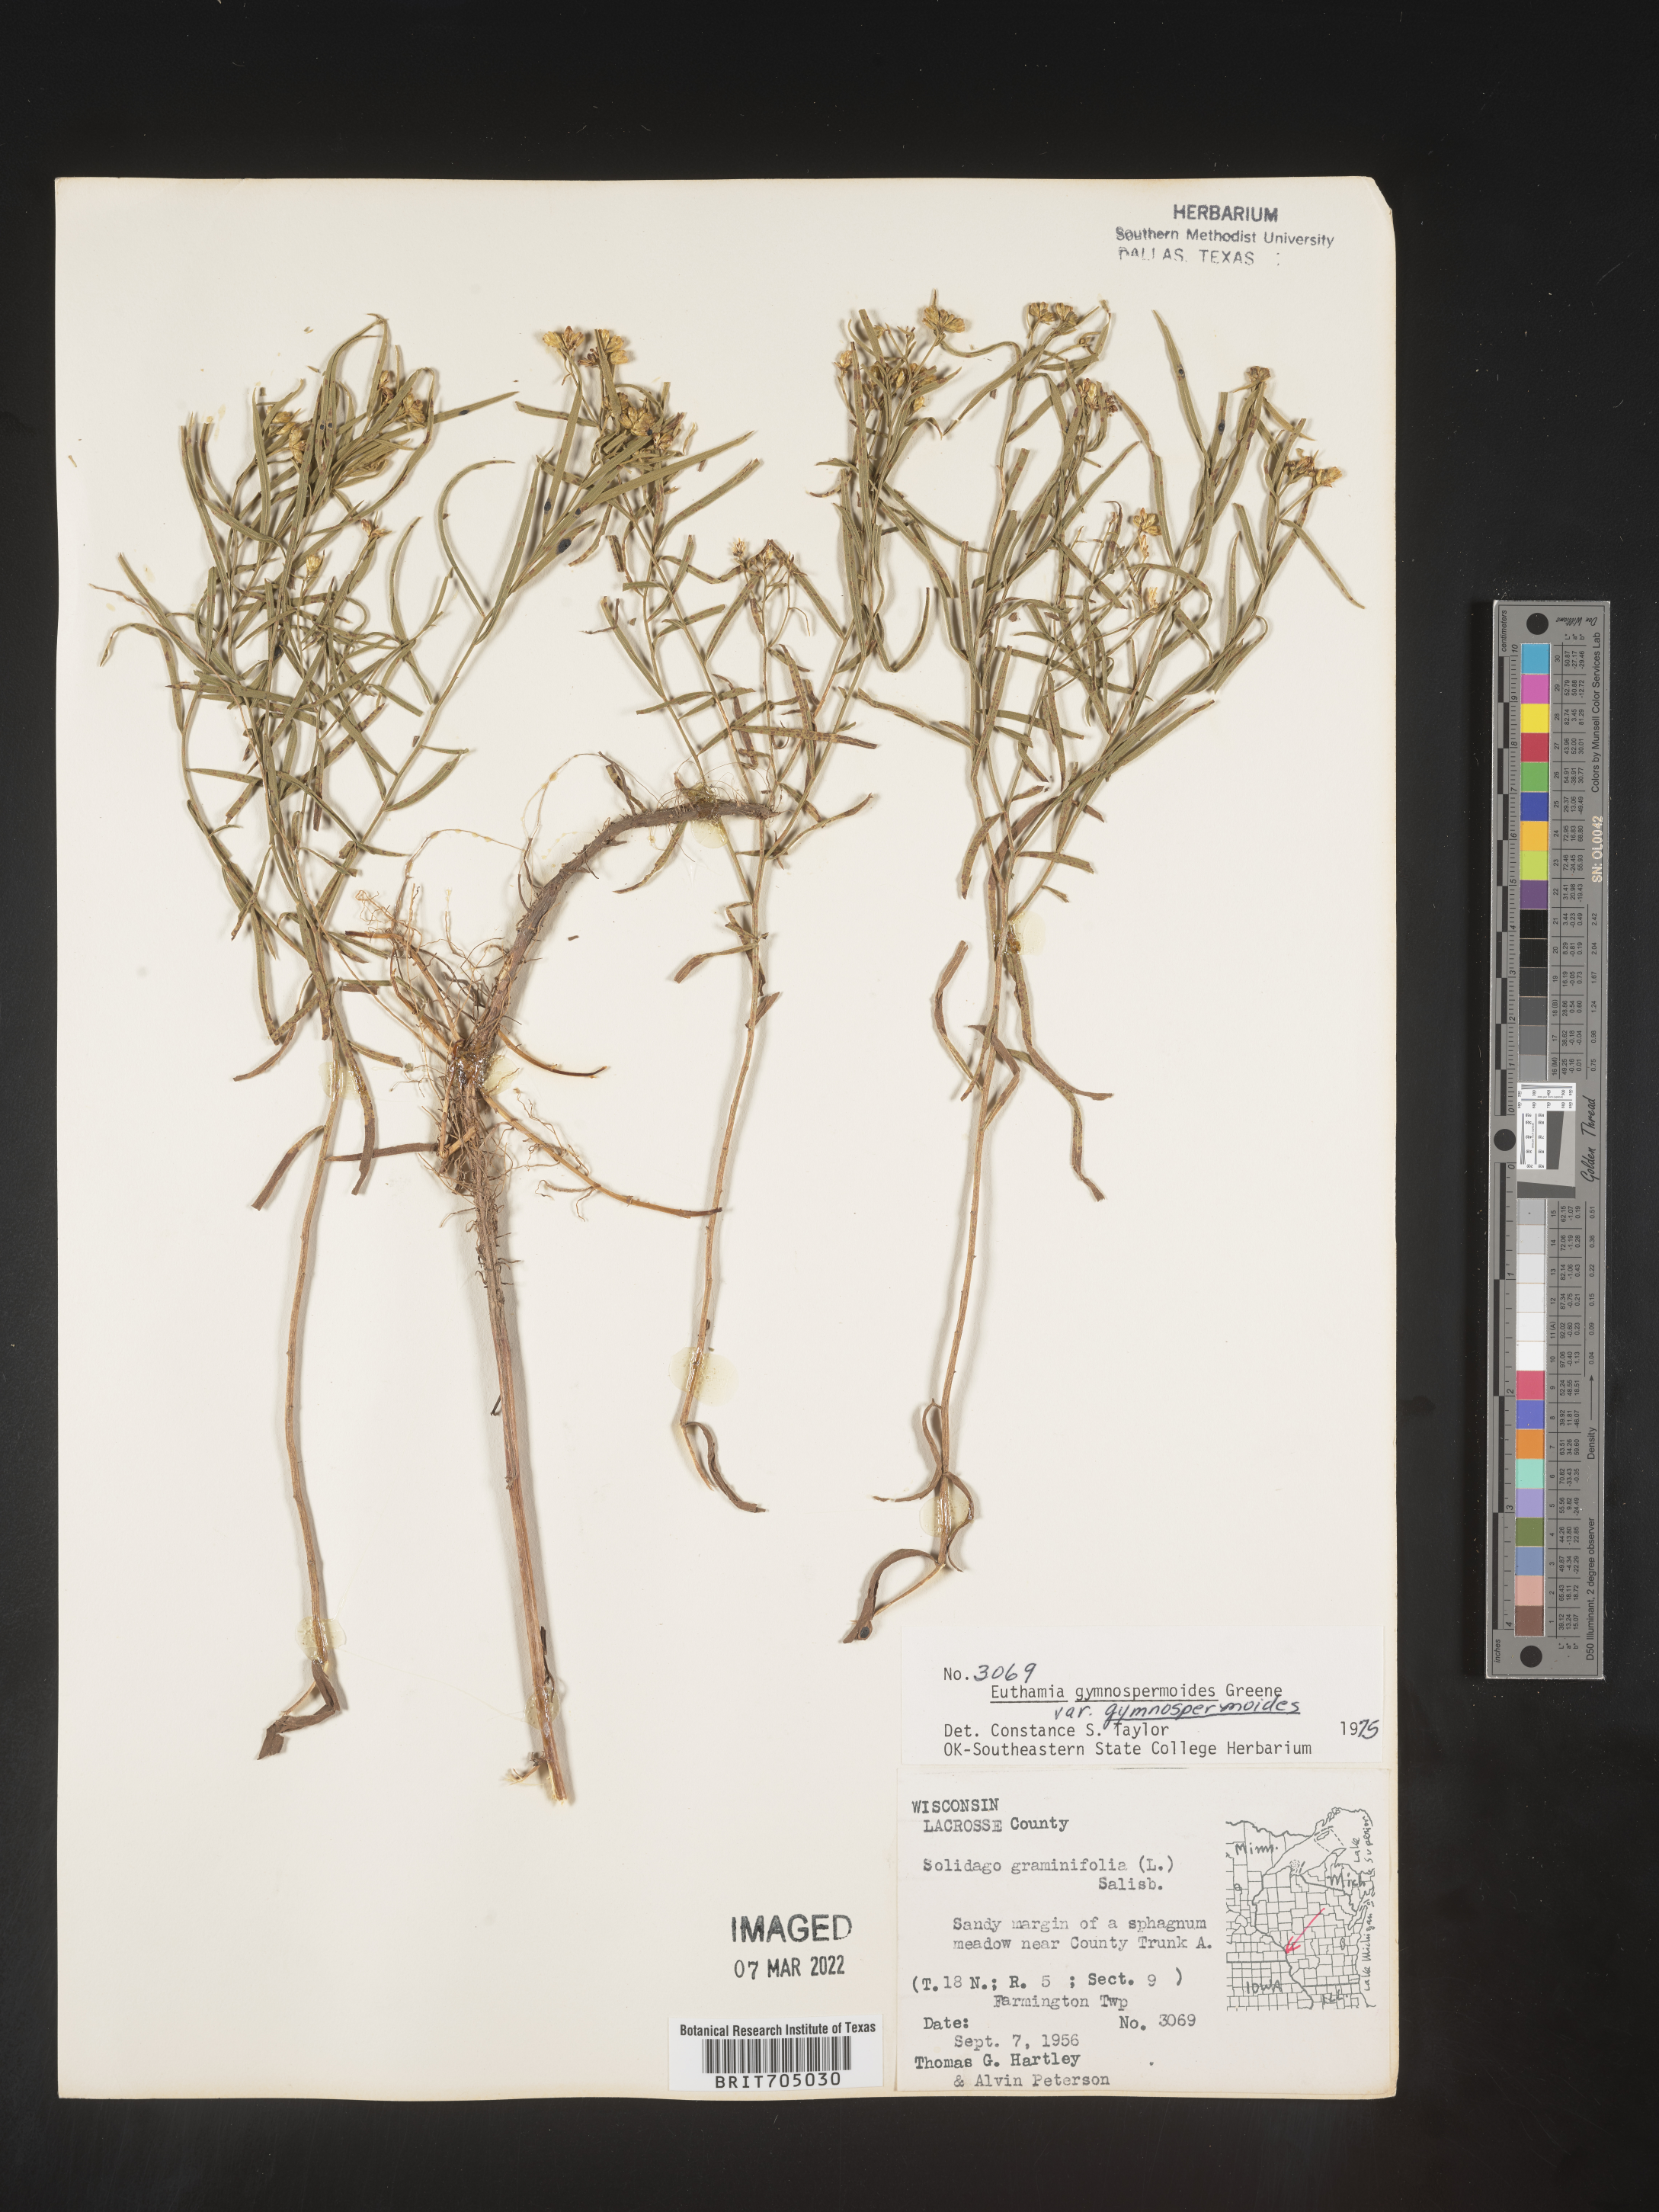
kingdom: Plantae
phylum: Tracheophyta
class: Magnoliopsida
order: Asterales
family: Asteraceae
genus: Euthamia
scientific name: Euthamia gymnospermoides
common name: Great plains goldentop
